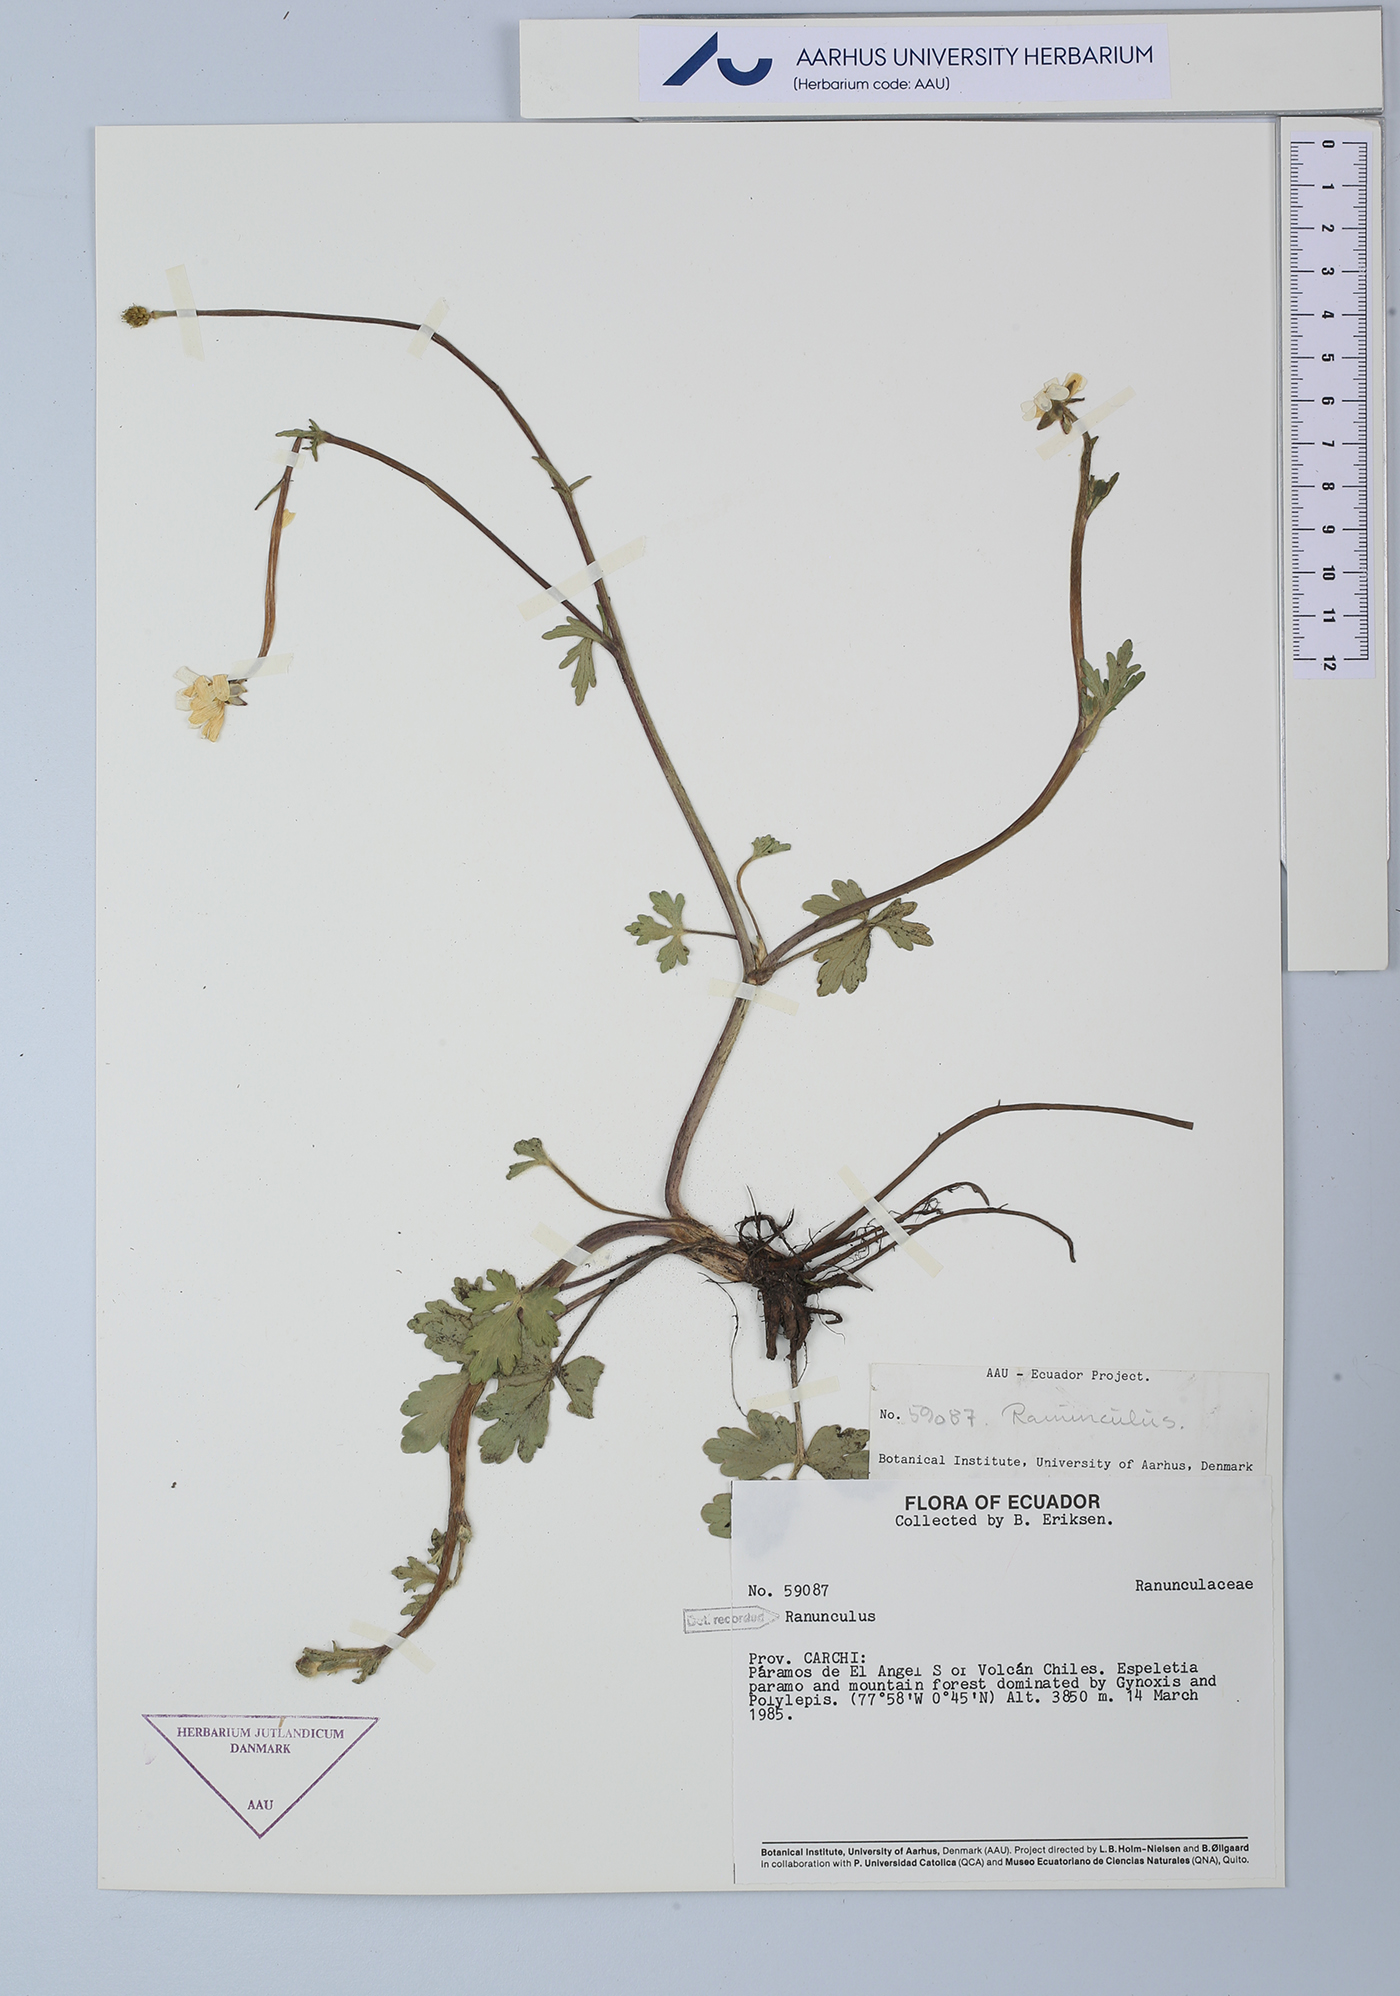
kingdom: Plantae
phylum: Tracheophyta
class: Magnoliopsida
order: Ranunculales
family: Ranunculaceae
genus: Ranunculus
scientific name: Ranunculus
